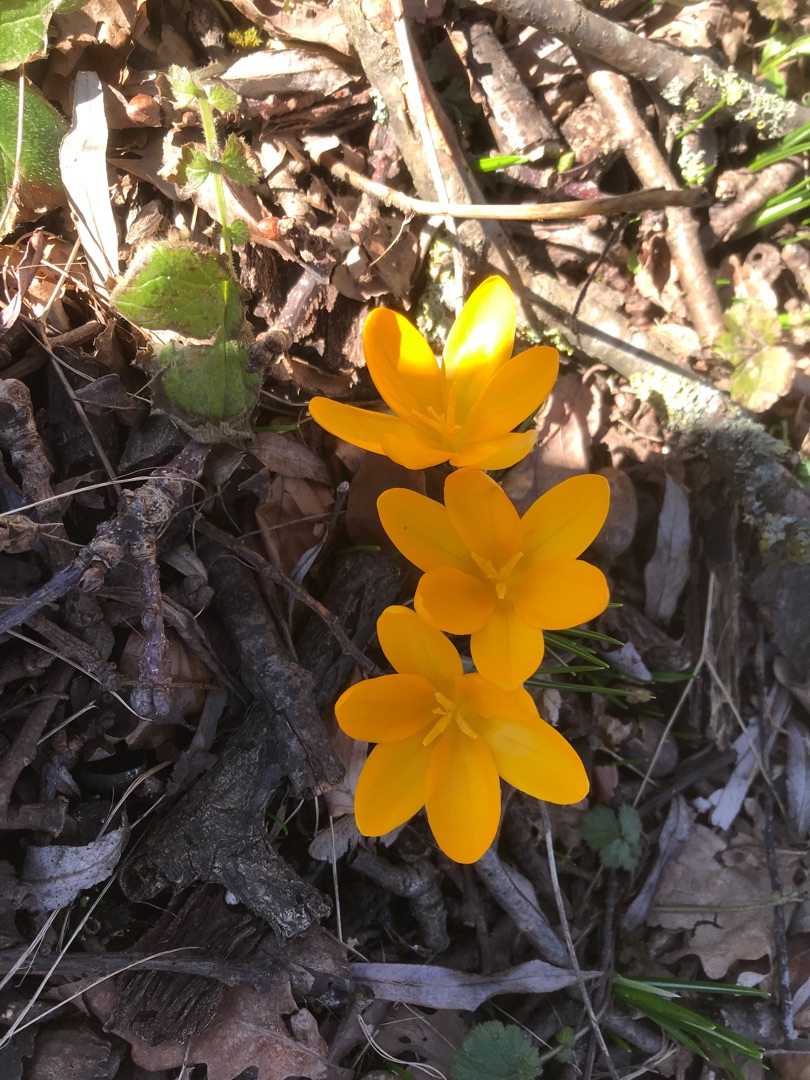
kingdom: Plantae
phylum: Tracheophyta
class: Liliopsida
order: Asparagales
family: Iridaceae
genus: Crocus
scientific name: Crocus luteus
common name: Gul krokus
